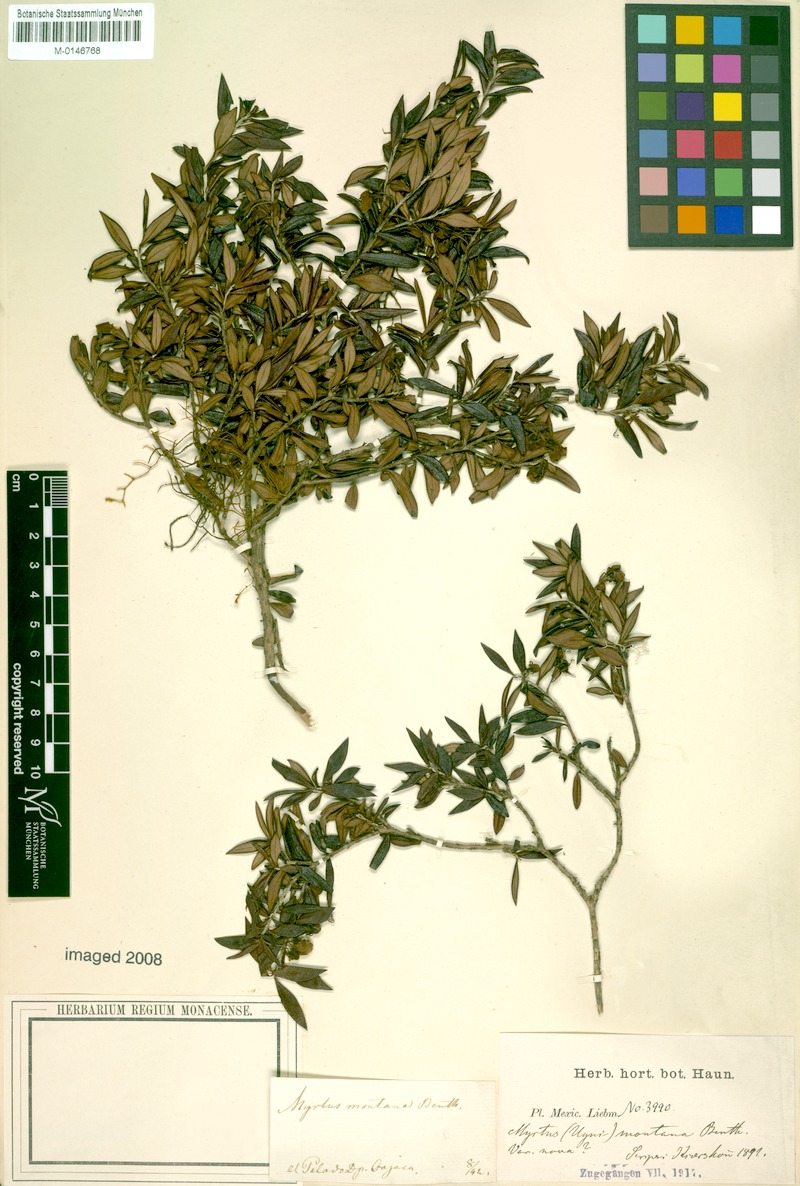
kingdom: Plantae
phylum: Tracheophyta
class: Magnoliopsida
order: Myrtales
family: Myrtaceae
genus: Ugni
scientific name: Ugni myricoides
